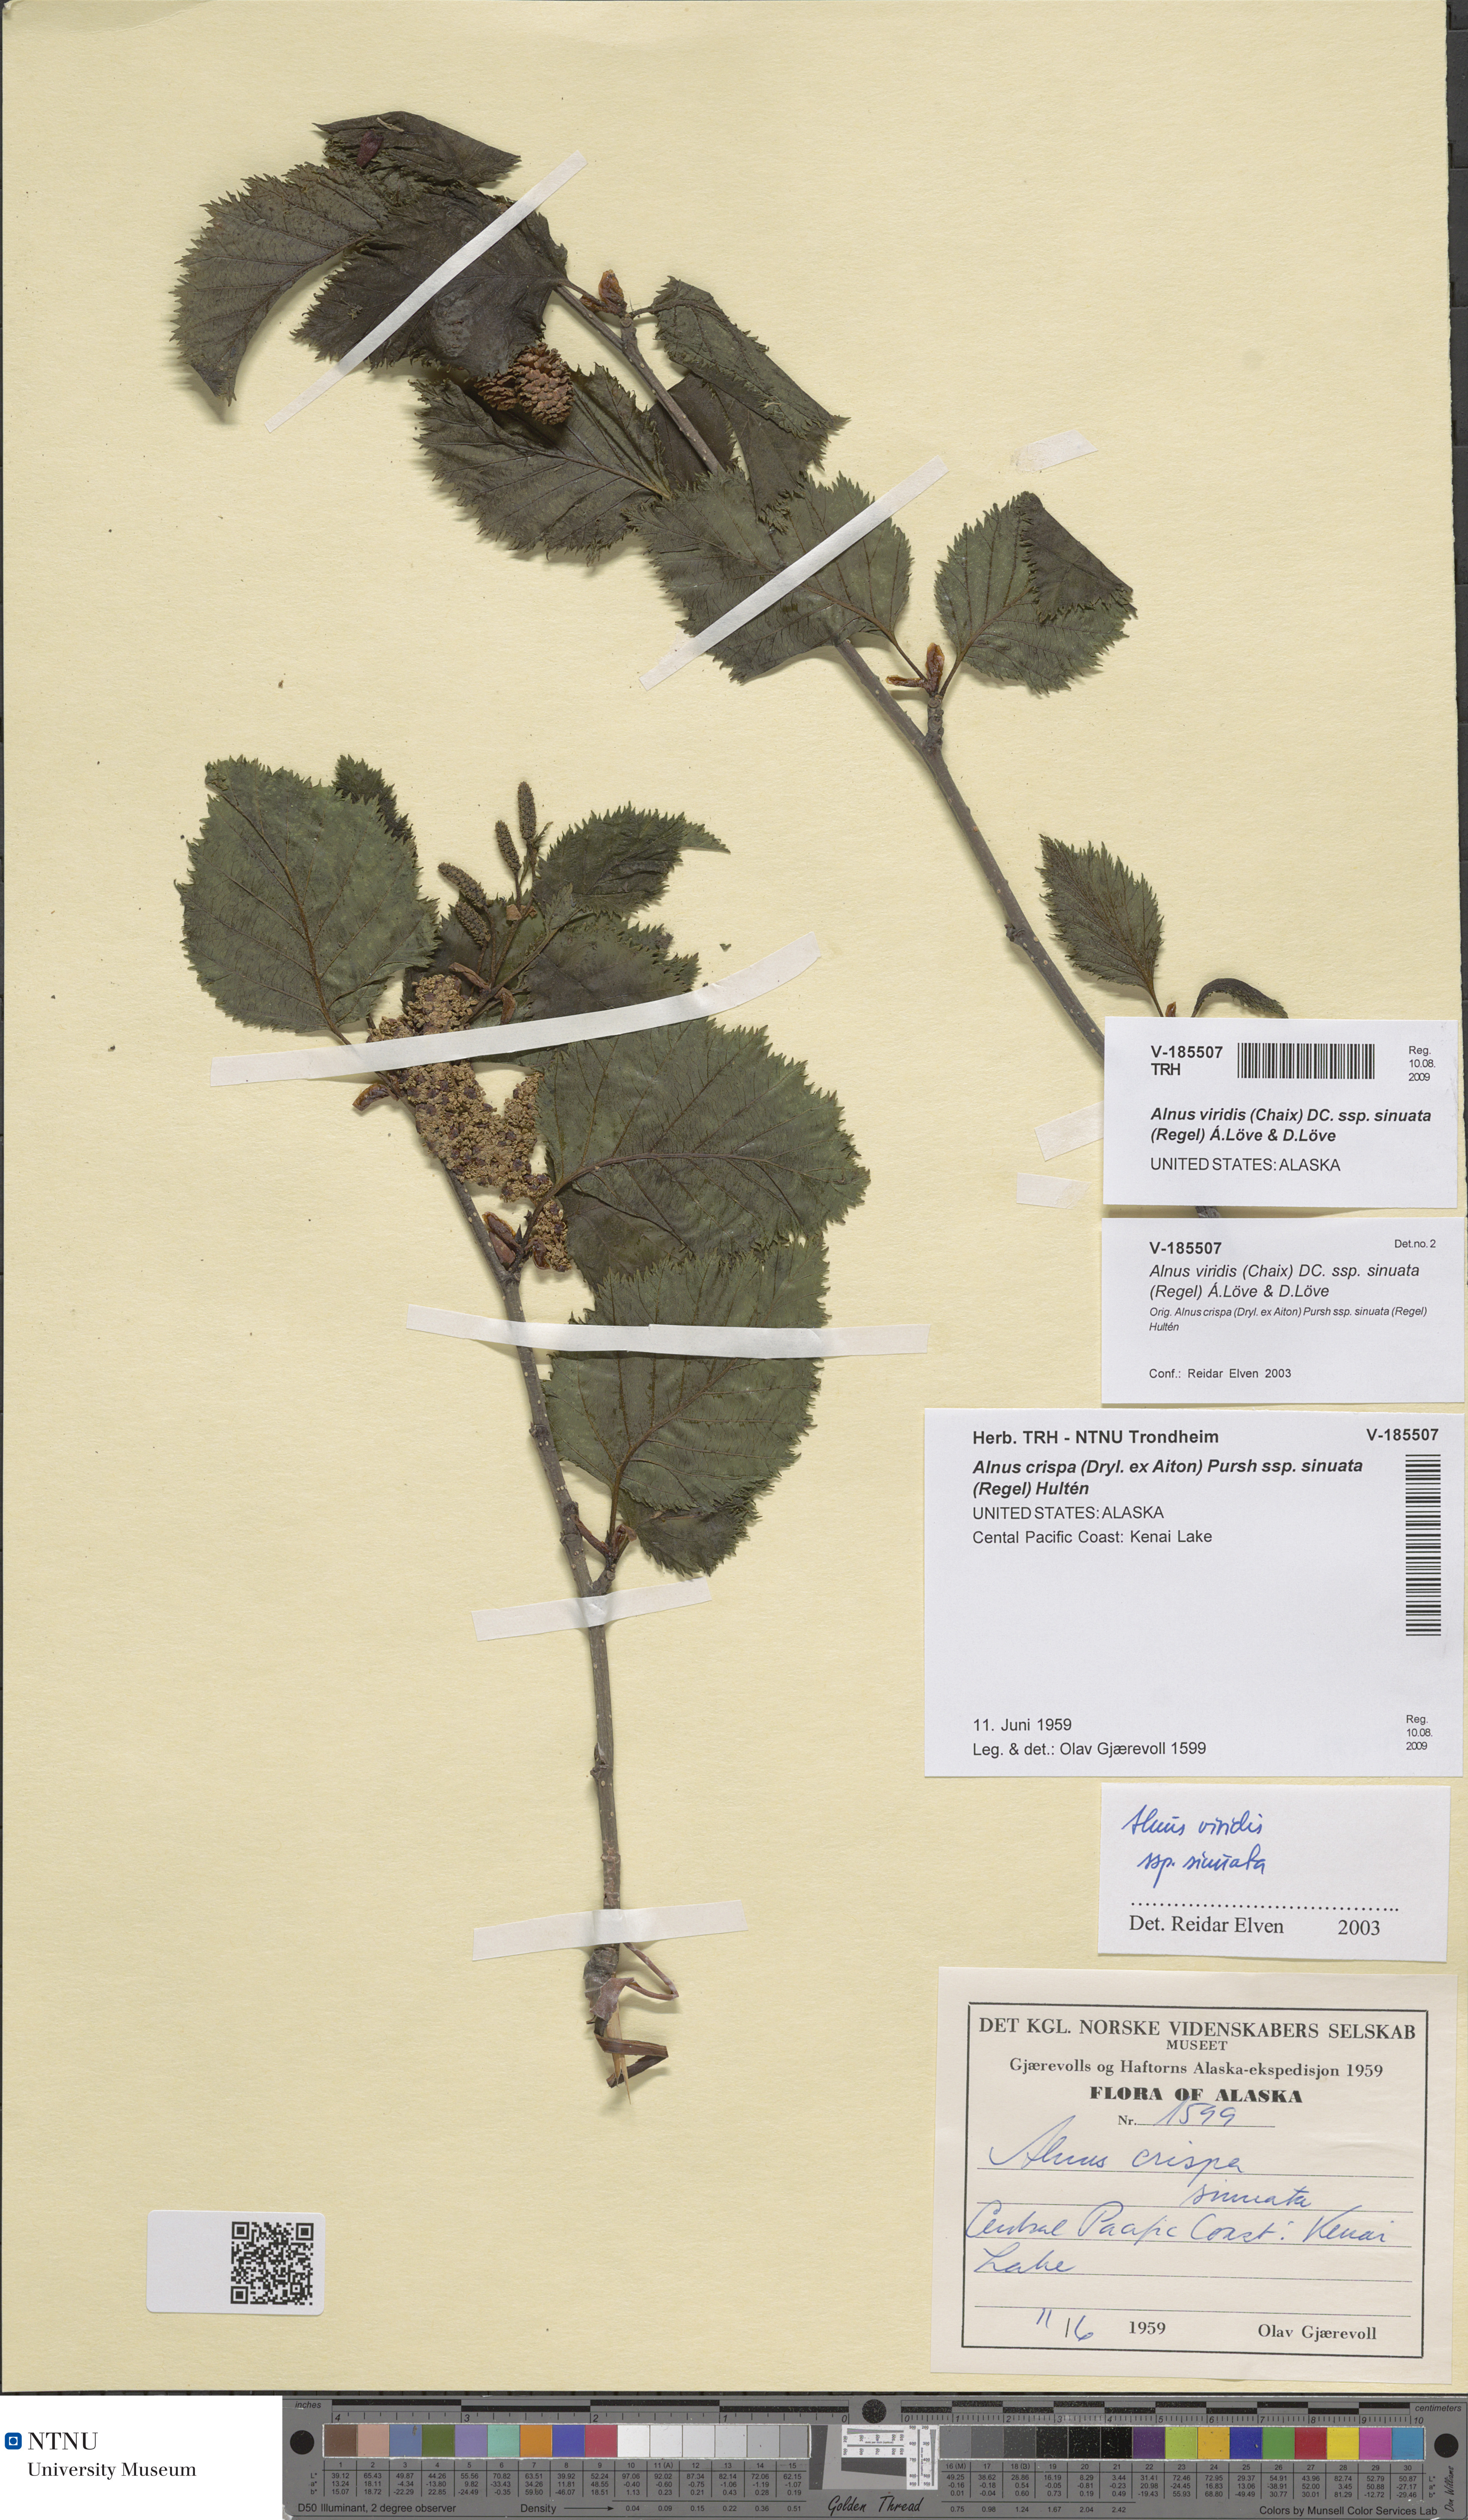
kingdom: Plantae
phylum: Tracheophyta
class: Magnoliopsida
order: Fagales
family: Betulaceae
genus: Alnus
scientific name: Alnus alnobetula
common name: Green alder
